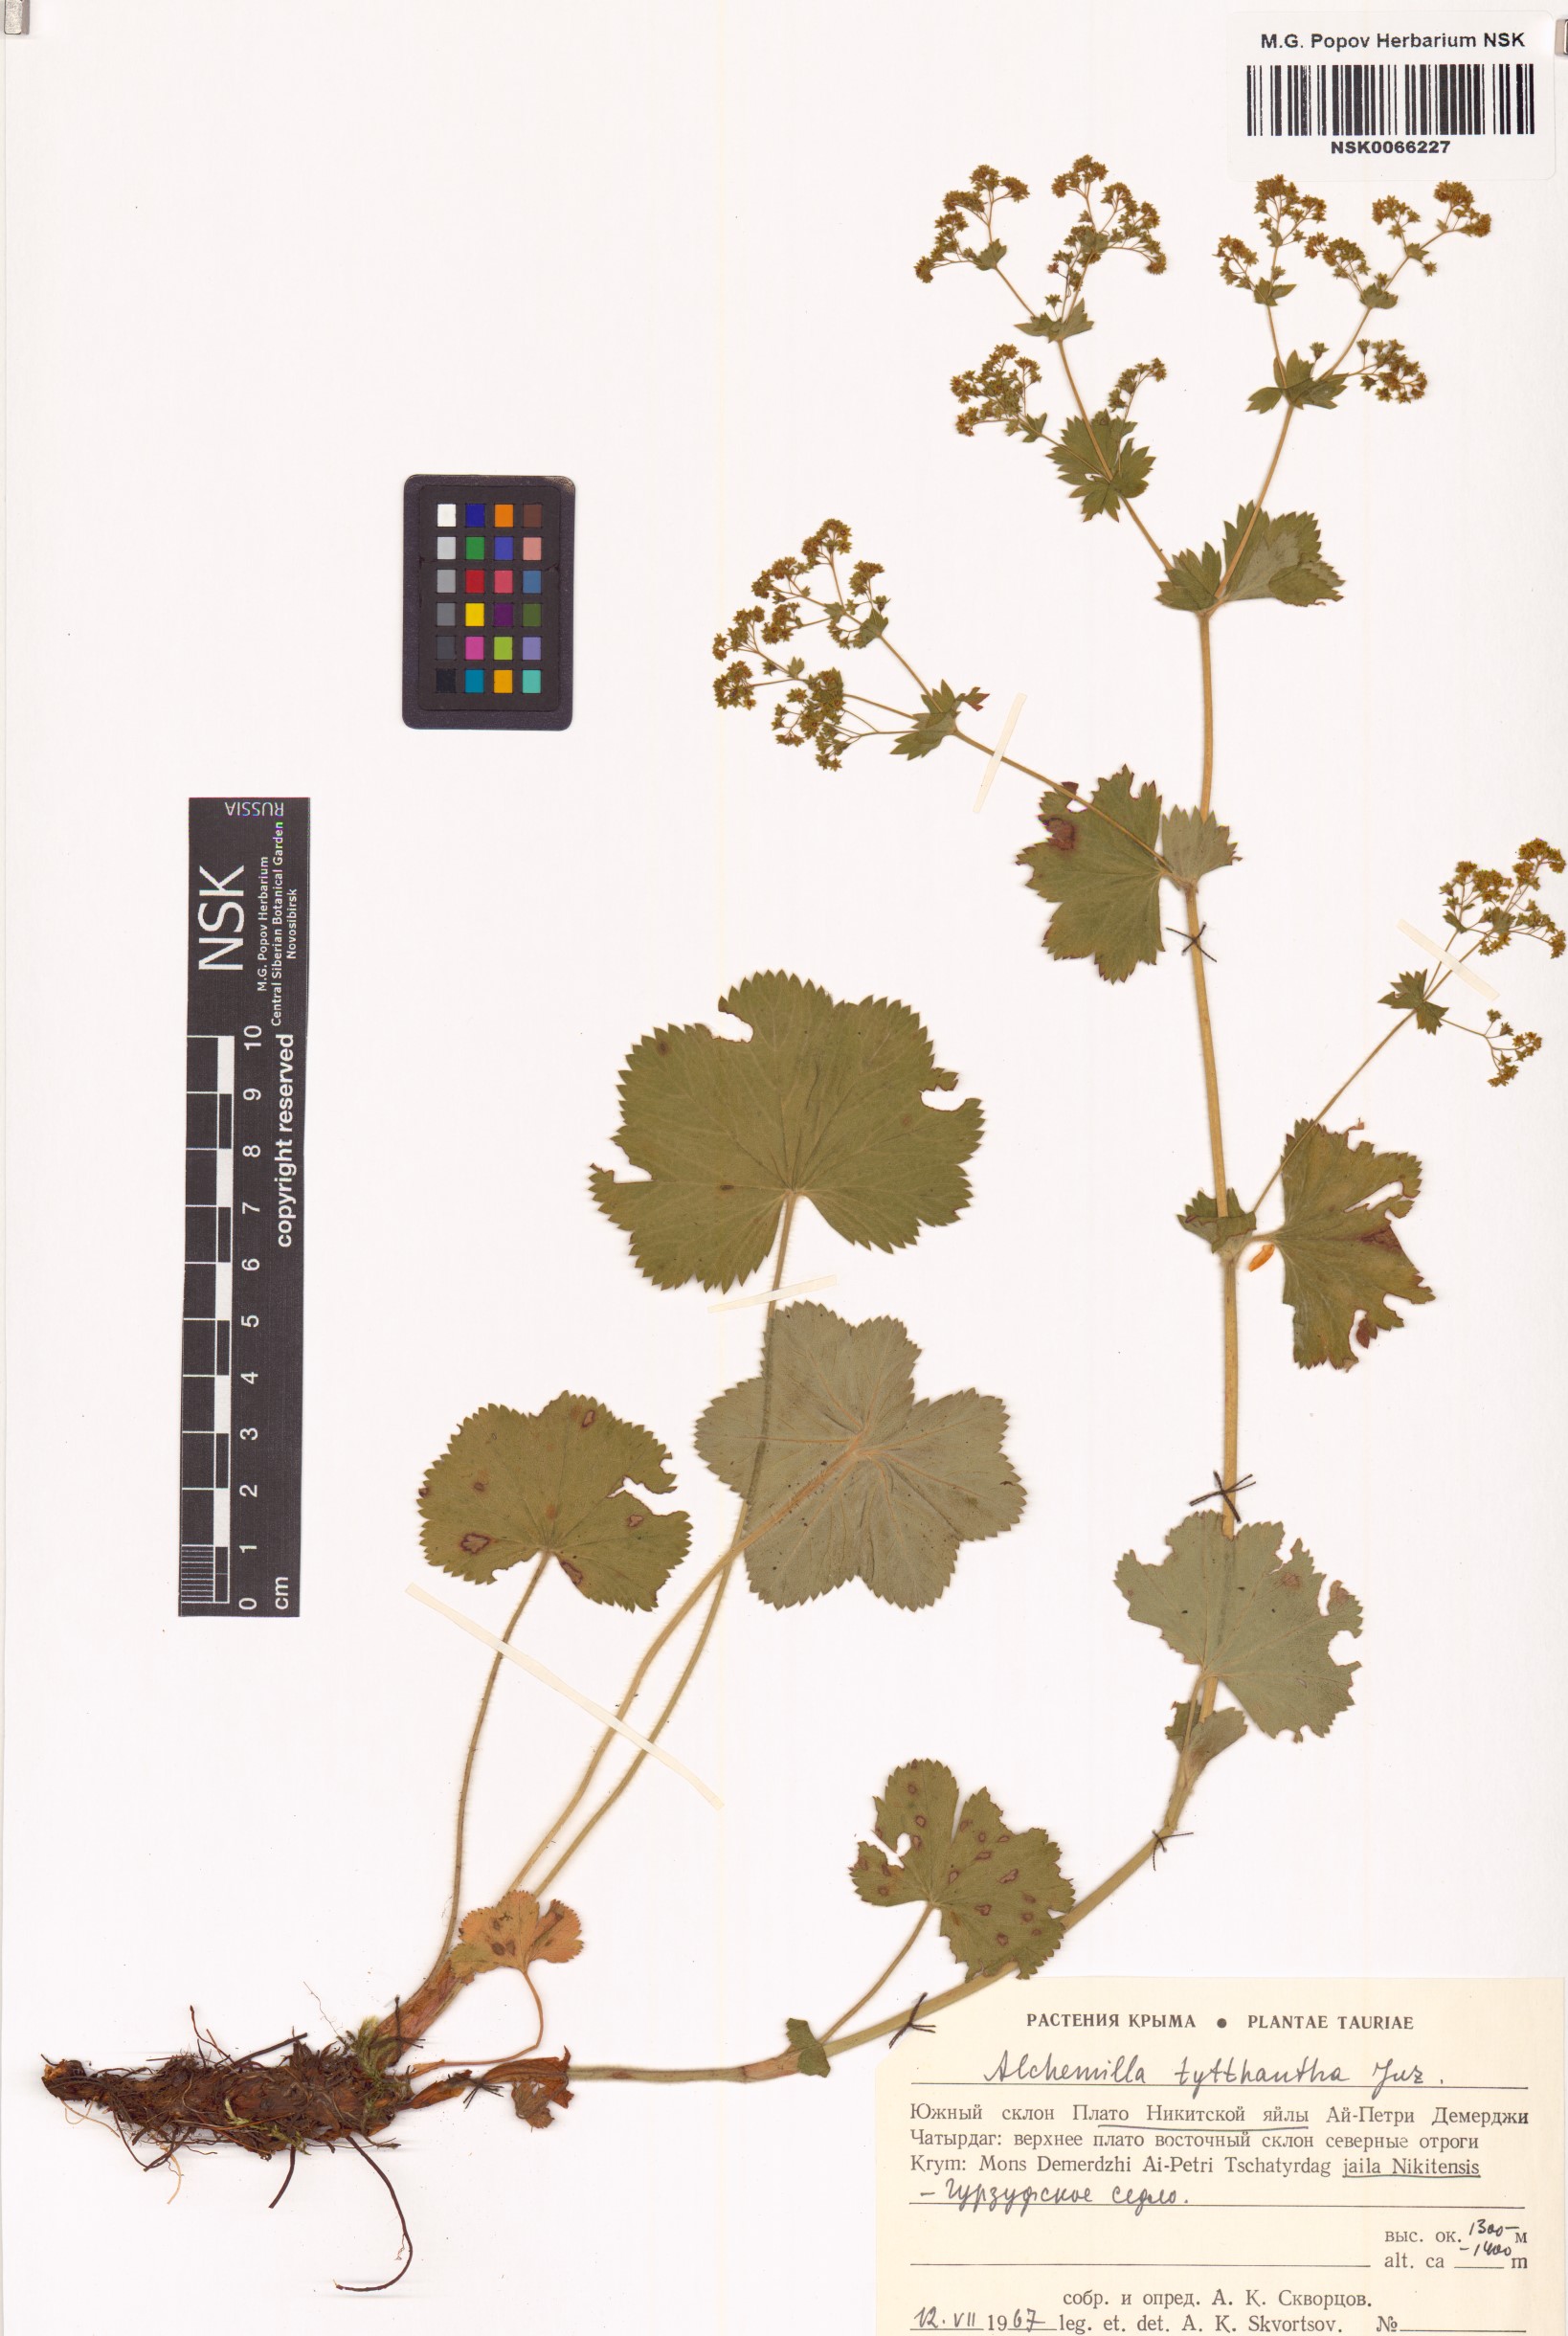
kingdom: Plantae
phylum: Tracheophyta
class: Magnoliopsida
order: Rosales
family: Rosaceae
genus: Alchemilla
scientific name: Alchemilla tytthantha
